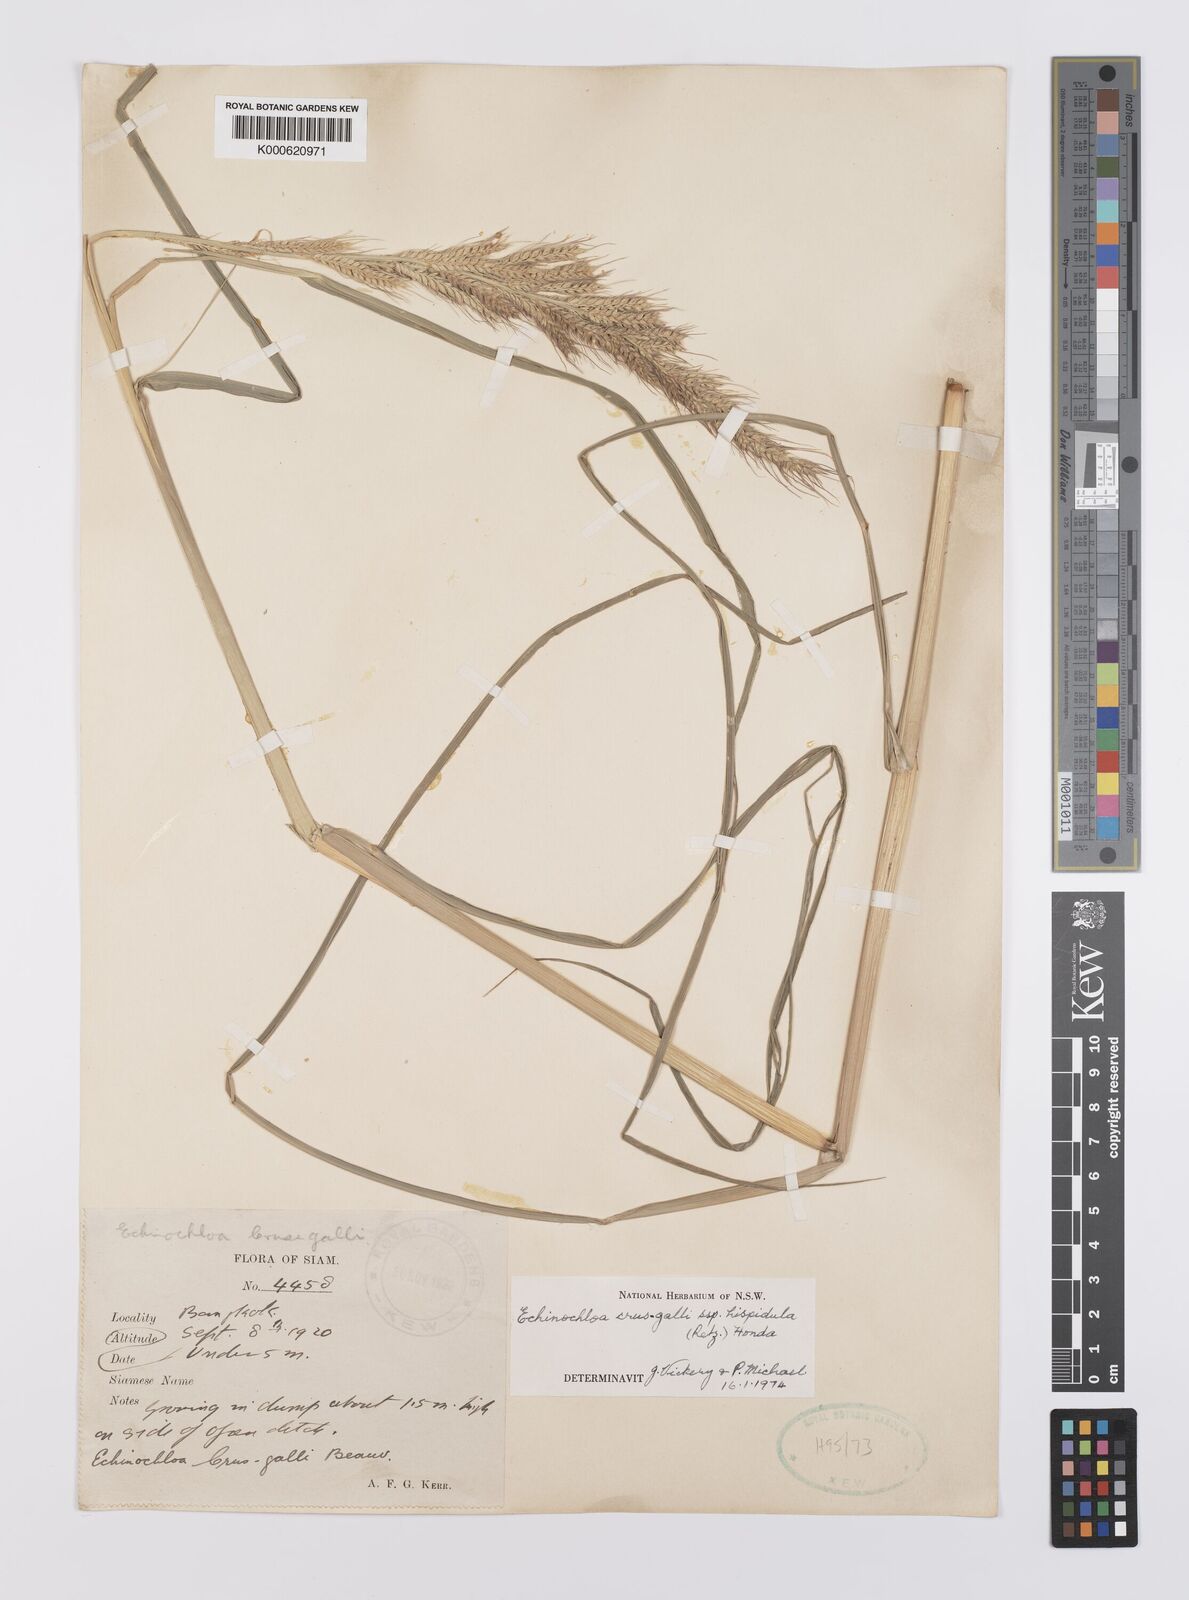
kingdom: Plantae
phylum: Tracheophyta
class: Liliopsida
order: Poales
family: Poaceae
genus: Echinochloa
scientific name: Echinochloa crus-galli
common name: Cockspur
